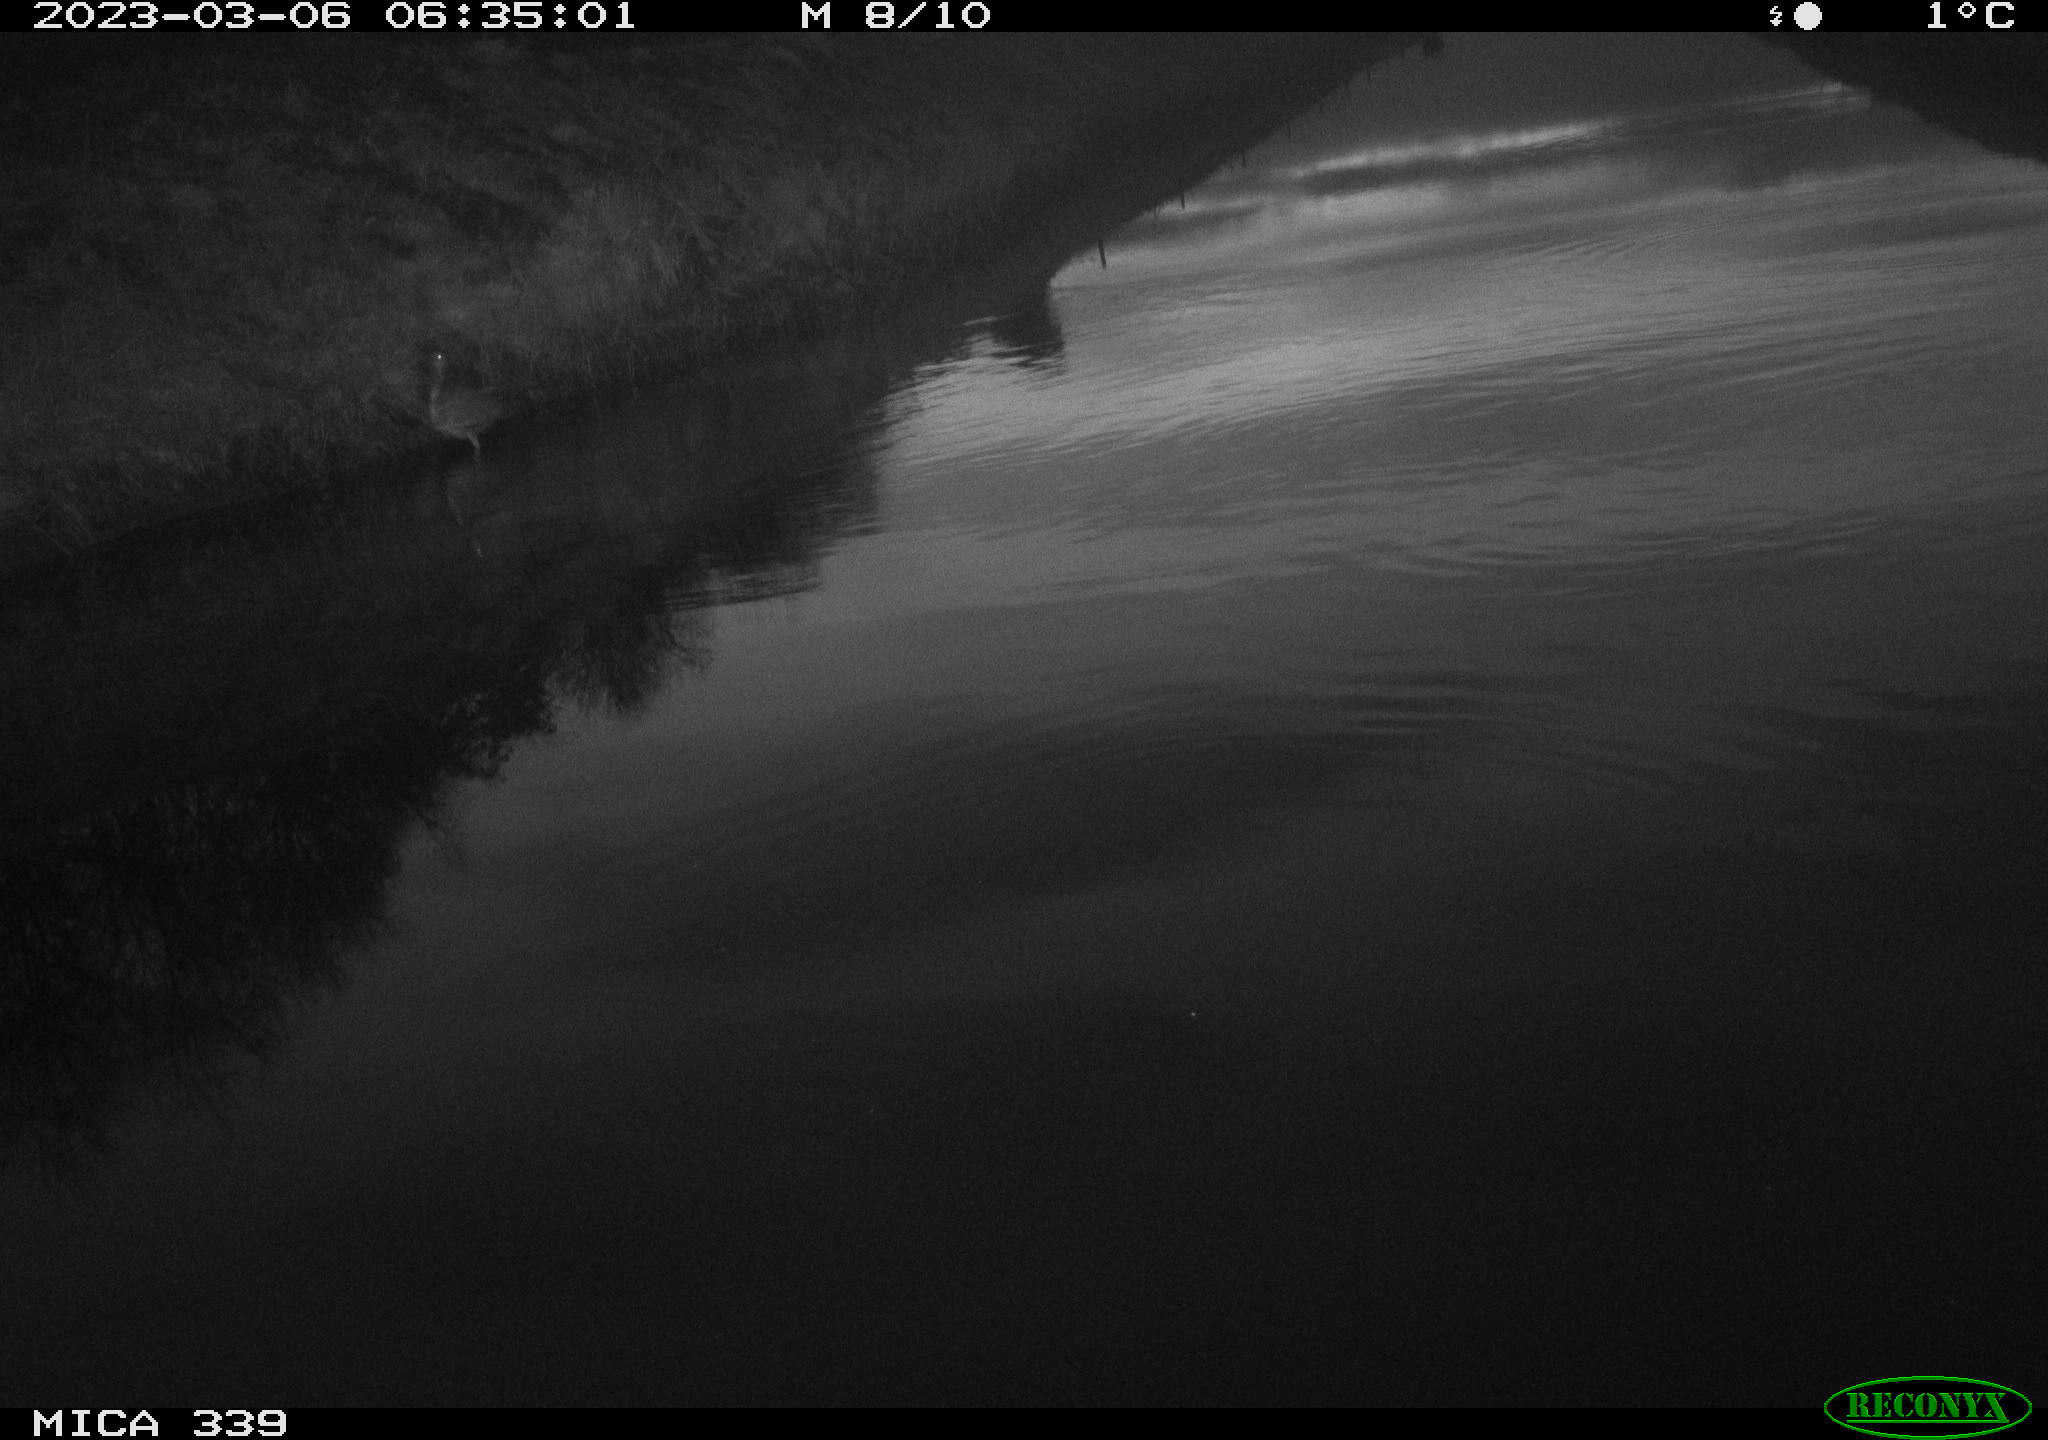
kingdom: Animalia
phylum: Chordata
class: Aves
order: Pelecaniformes
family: Ardeidae
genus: Ardea
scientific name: Ardea cinerea
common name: Grey heron
